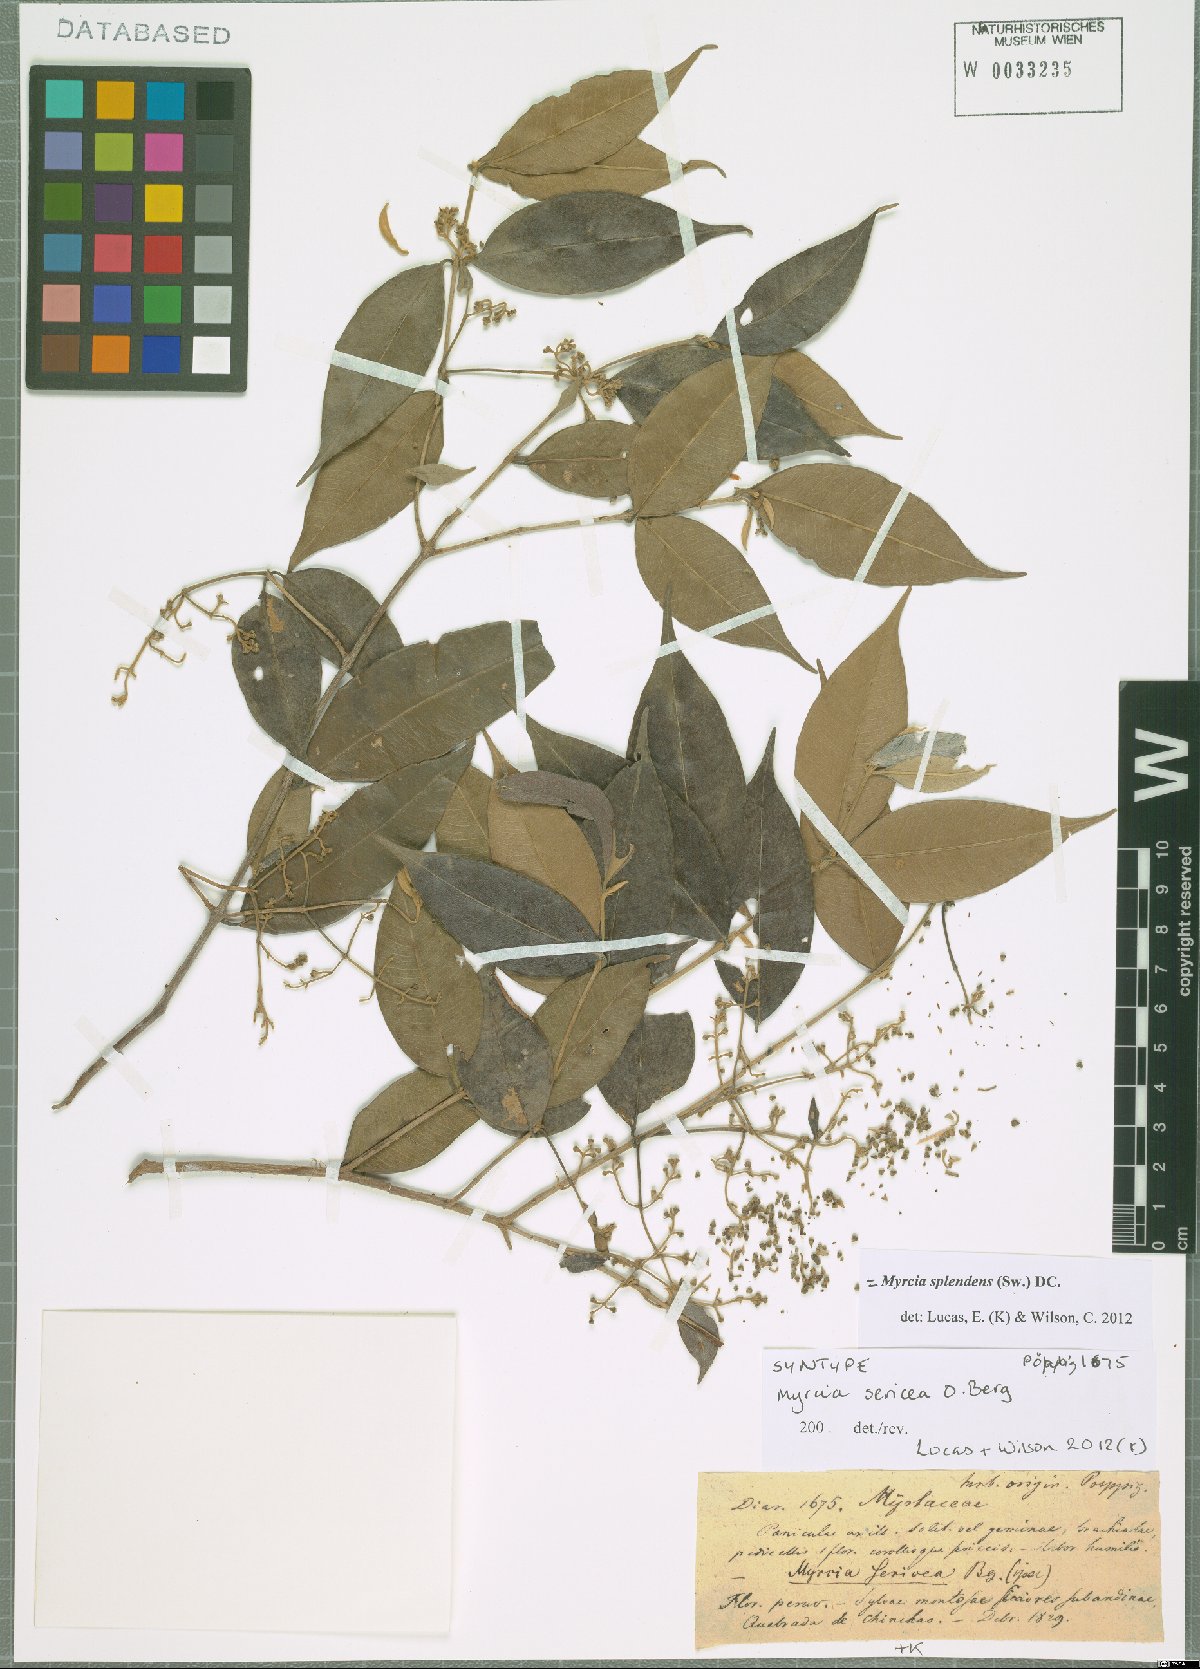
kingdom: Plantae
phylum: Tracheophyta
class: Magnoliopsida
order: Myrtales
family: Myrtaceae
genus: Myrcia
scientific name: Myrcia splendens
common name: Surinam cherry
